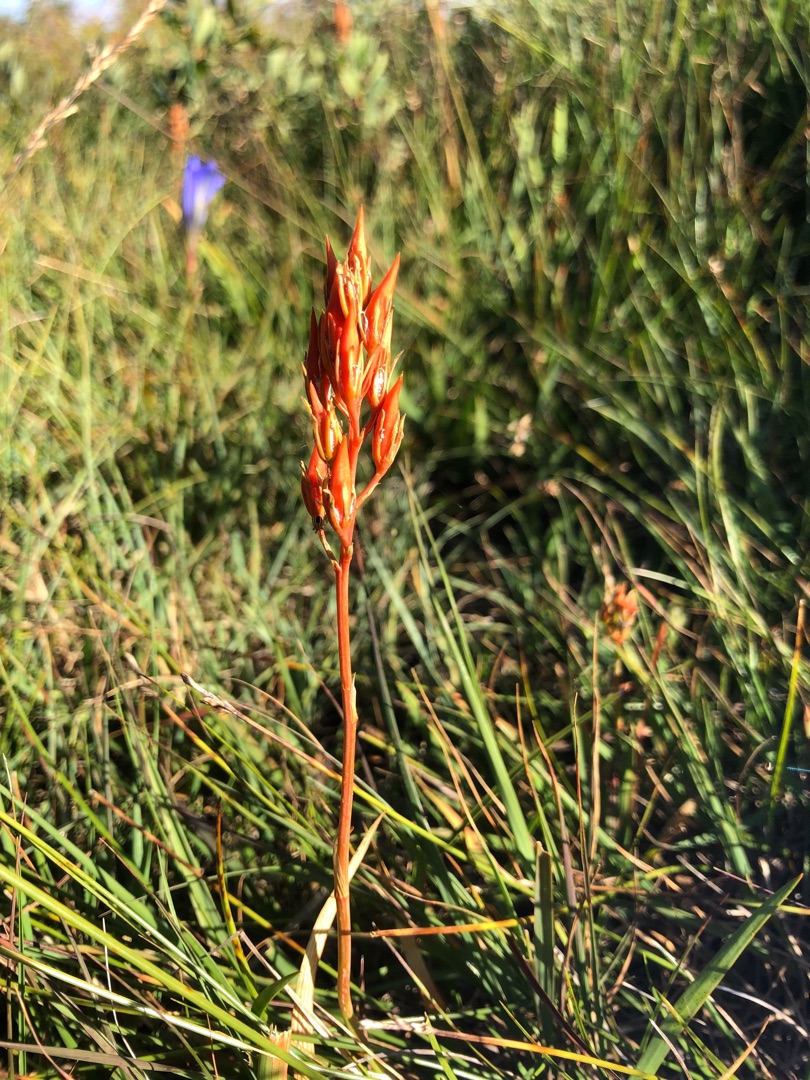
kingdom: Plantae
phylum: Tracheophyta
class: Liliopsida
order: Dioscoreales
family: Nartheciaceae
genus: Narthecium
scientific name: Narthecium ossifragum
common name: Benbræk
